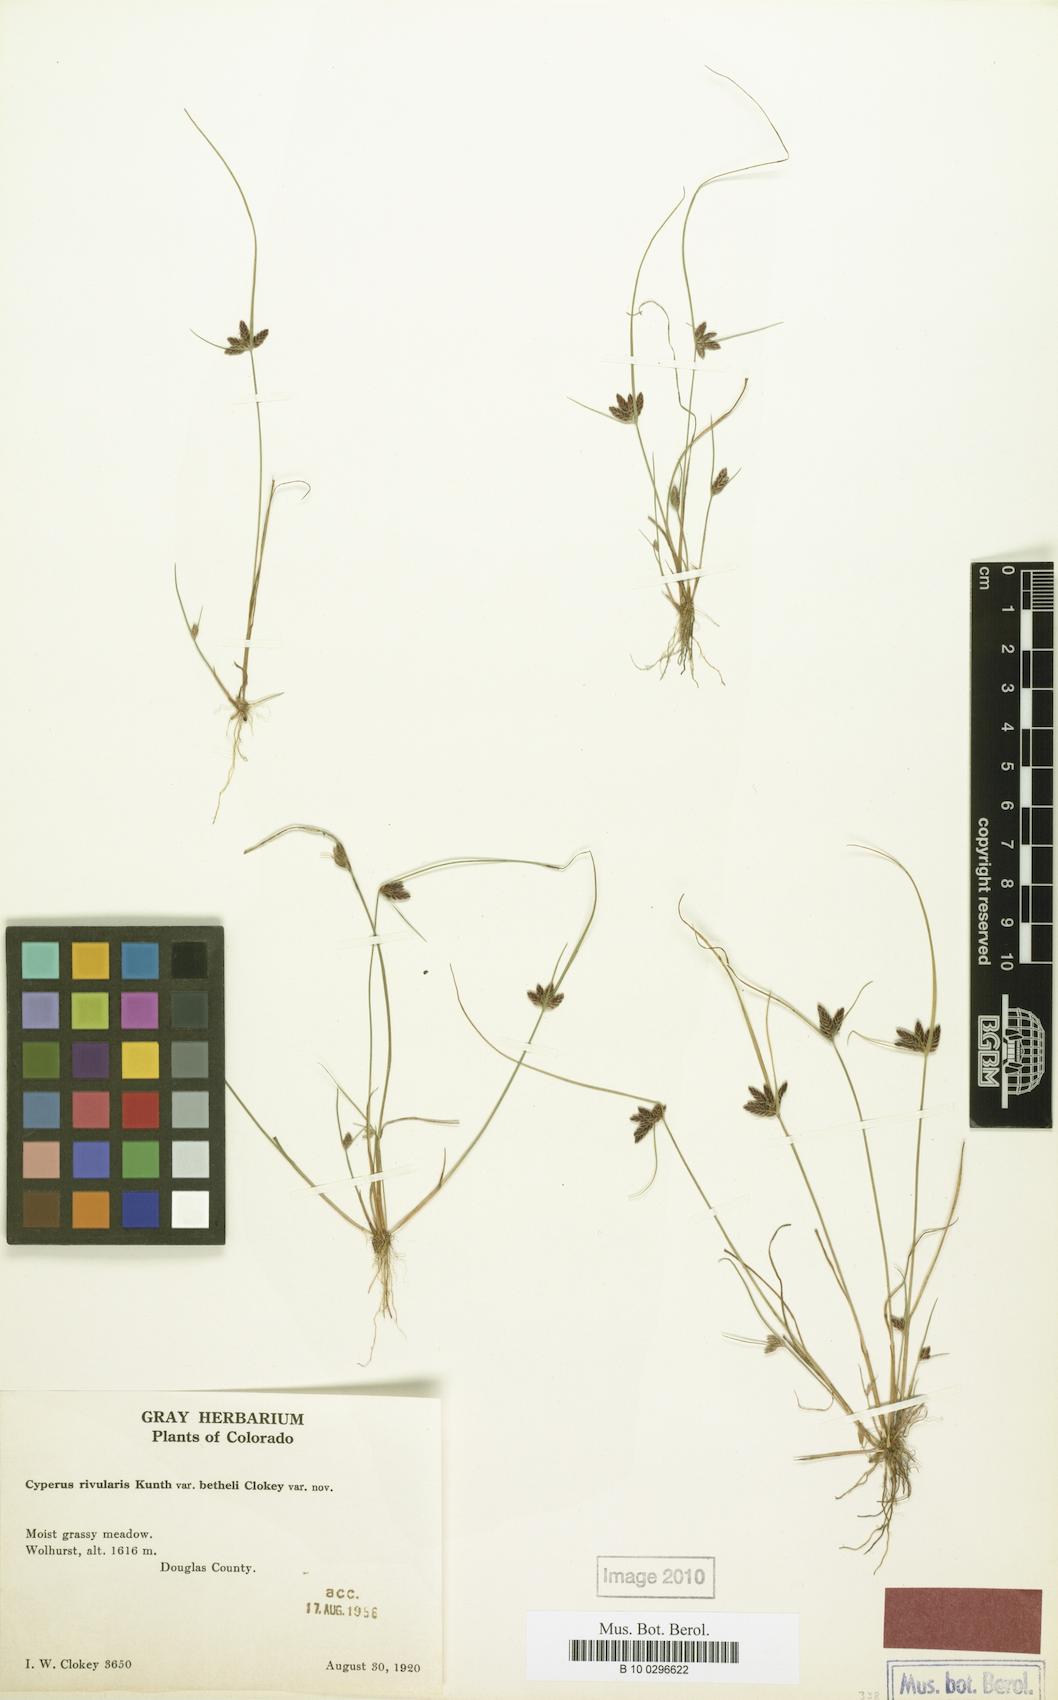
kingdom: Plantae
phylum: Tracheophyta
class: Liliopsida
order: Poales
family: Cyperaceae
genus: Cyperus
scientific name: Cyperus
